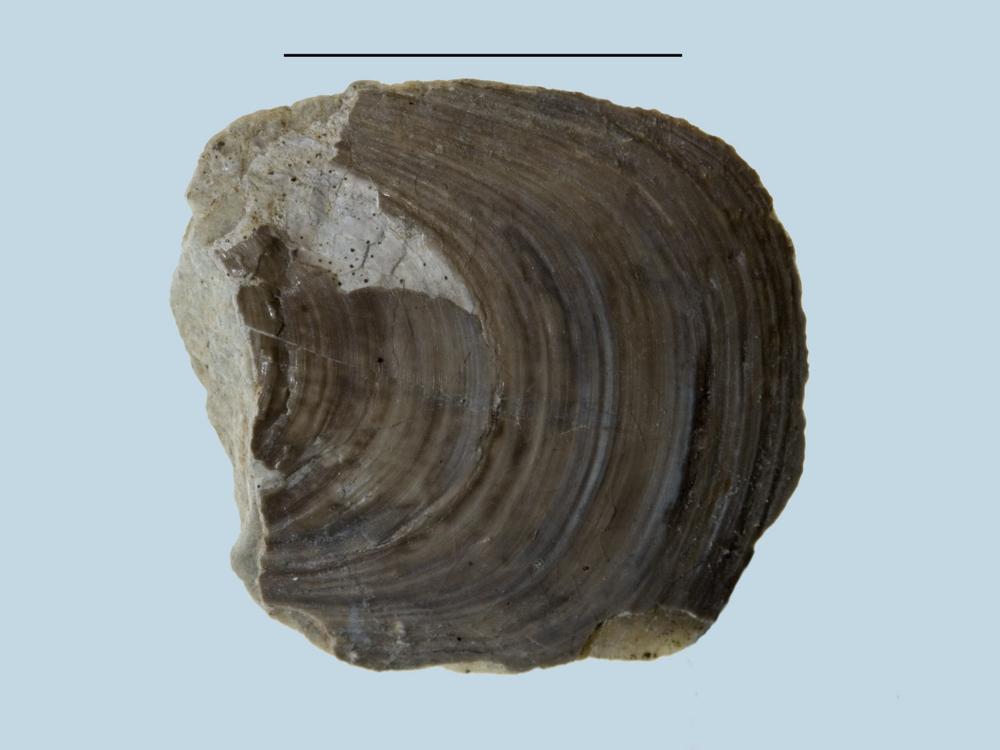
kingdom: Animalia
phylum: Brachiopoda
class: Lingulata
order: Lingulida
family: Pseudolingulidae
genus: Pseudolingula
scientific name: Pseudolingula Crania quadrata
